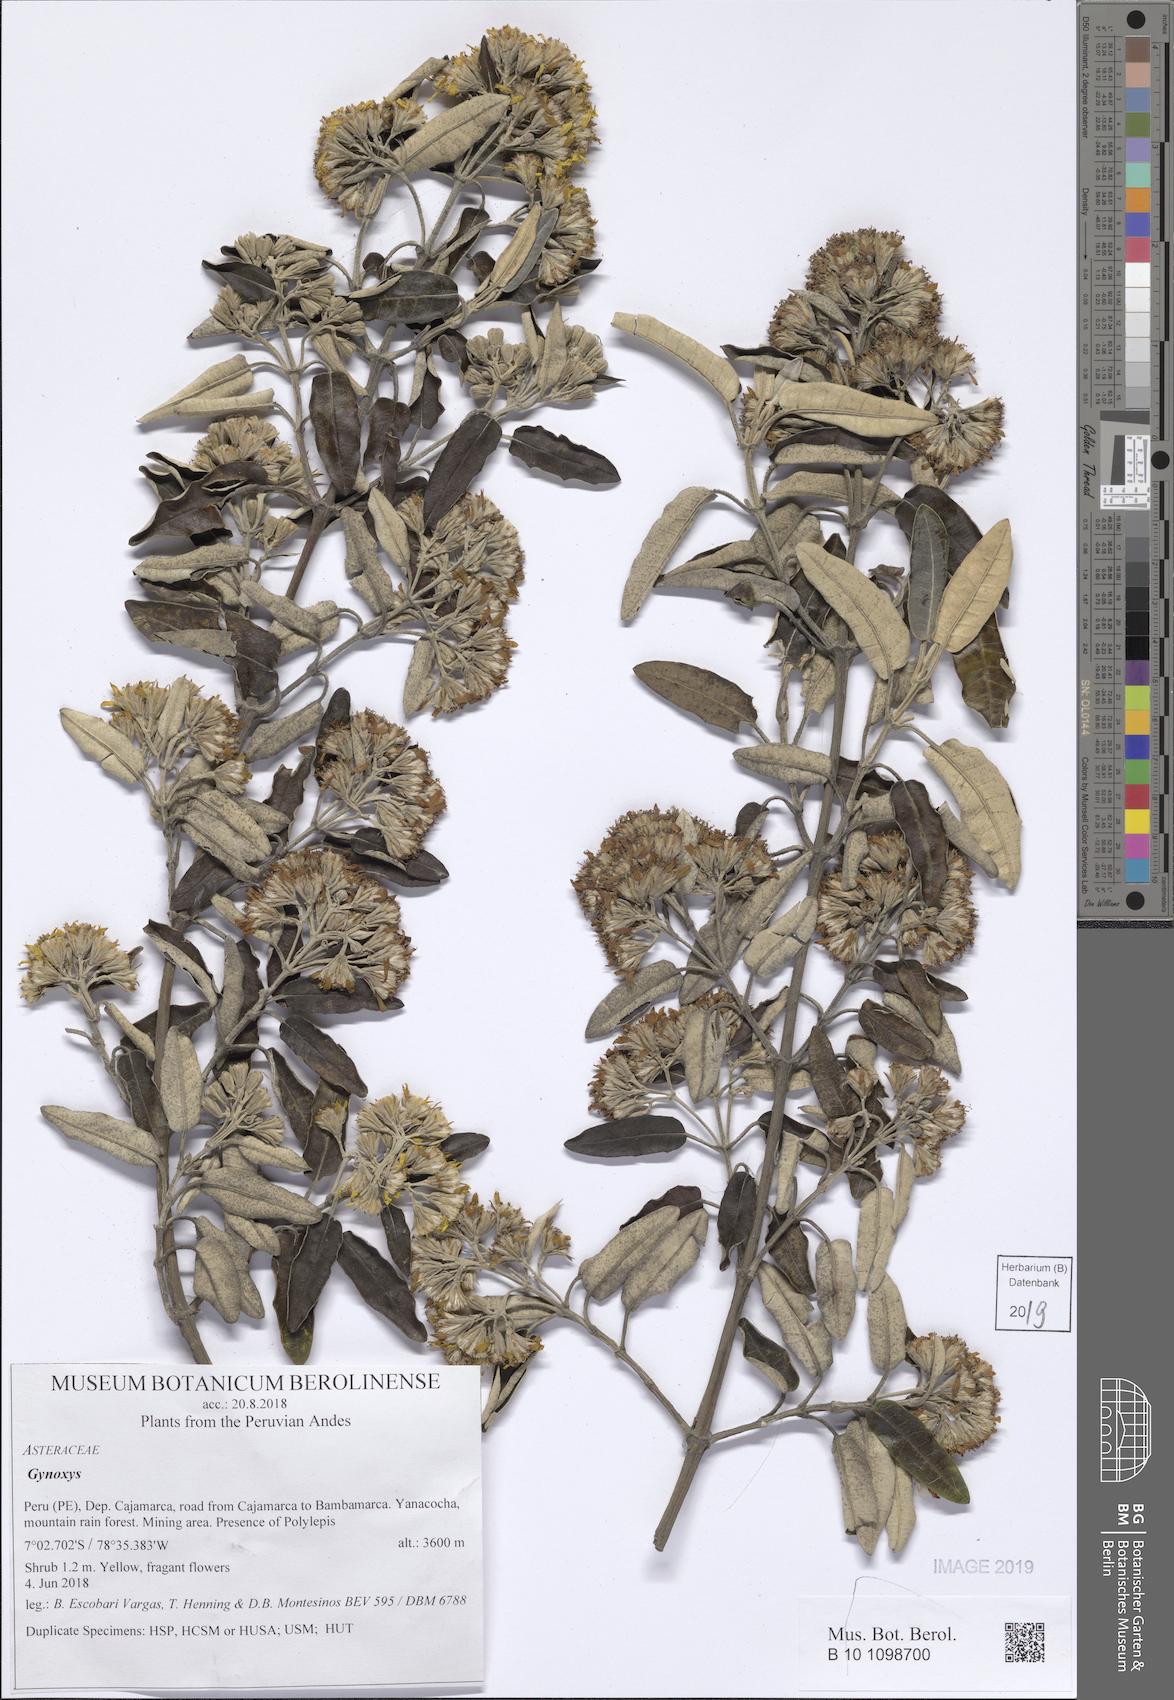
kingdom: Plantae
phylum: Tracheophyta
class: Magnoliopsida
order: Asterales
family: Asteraceae
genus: Gynoxys
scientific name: Gynoxys
